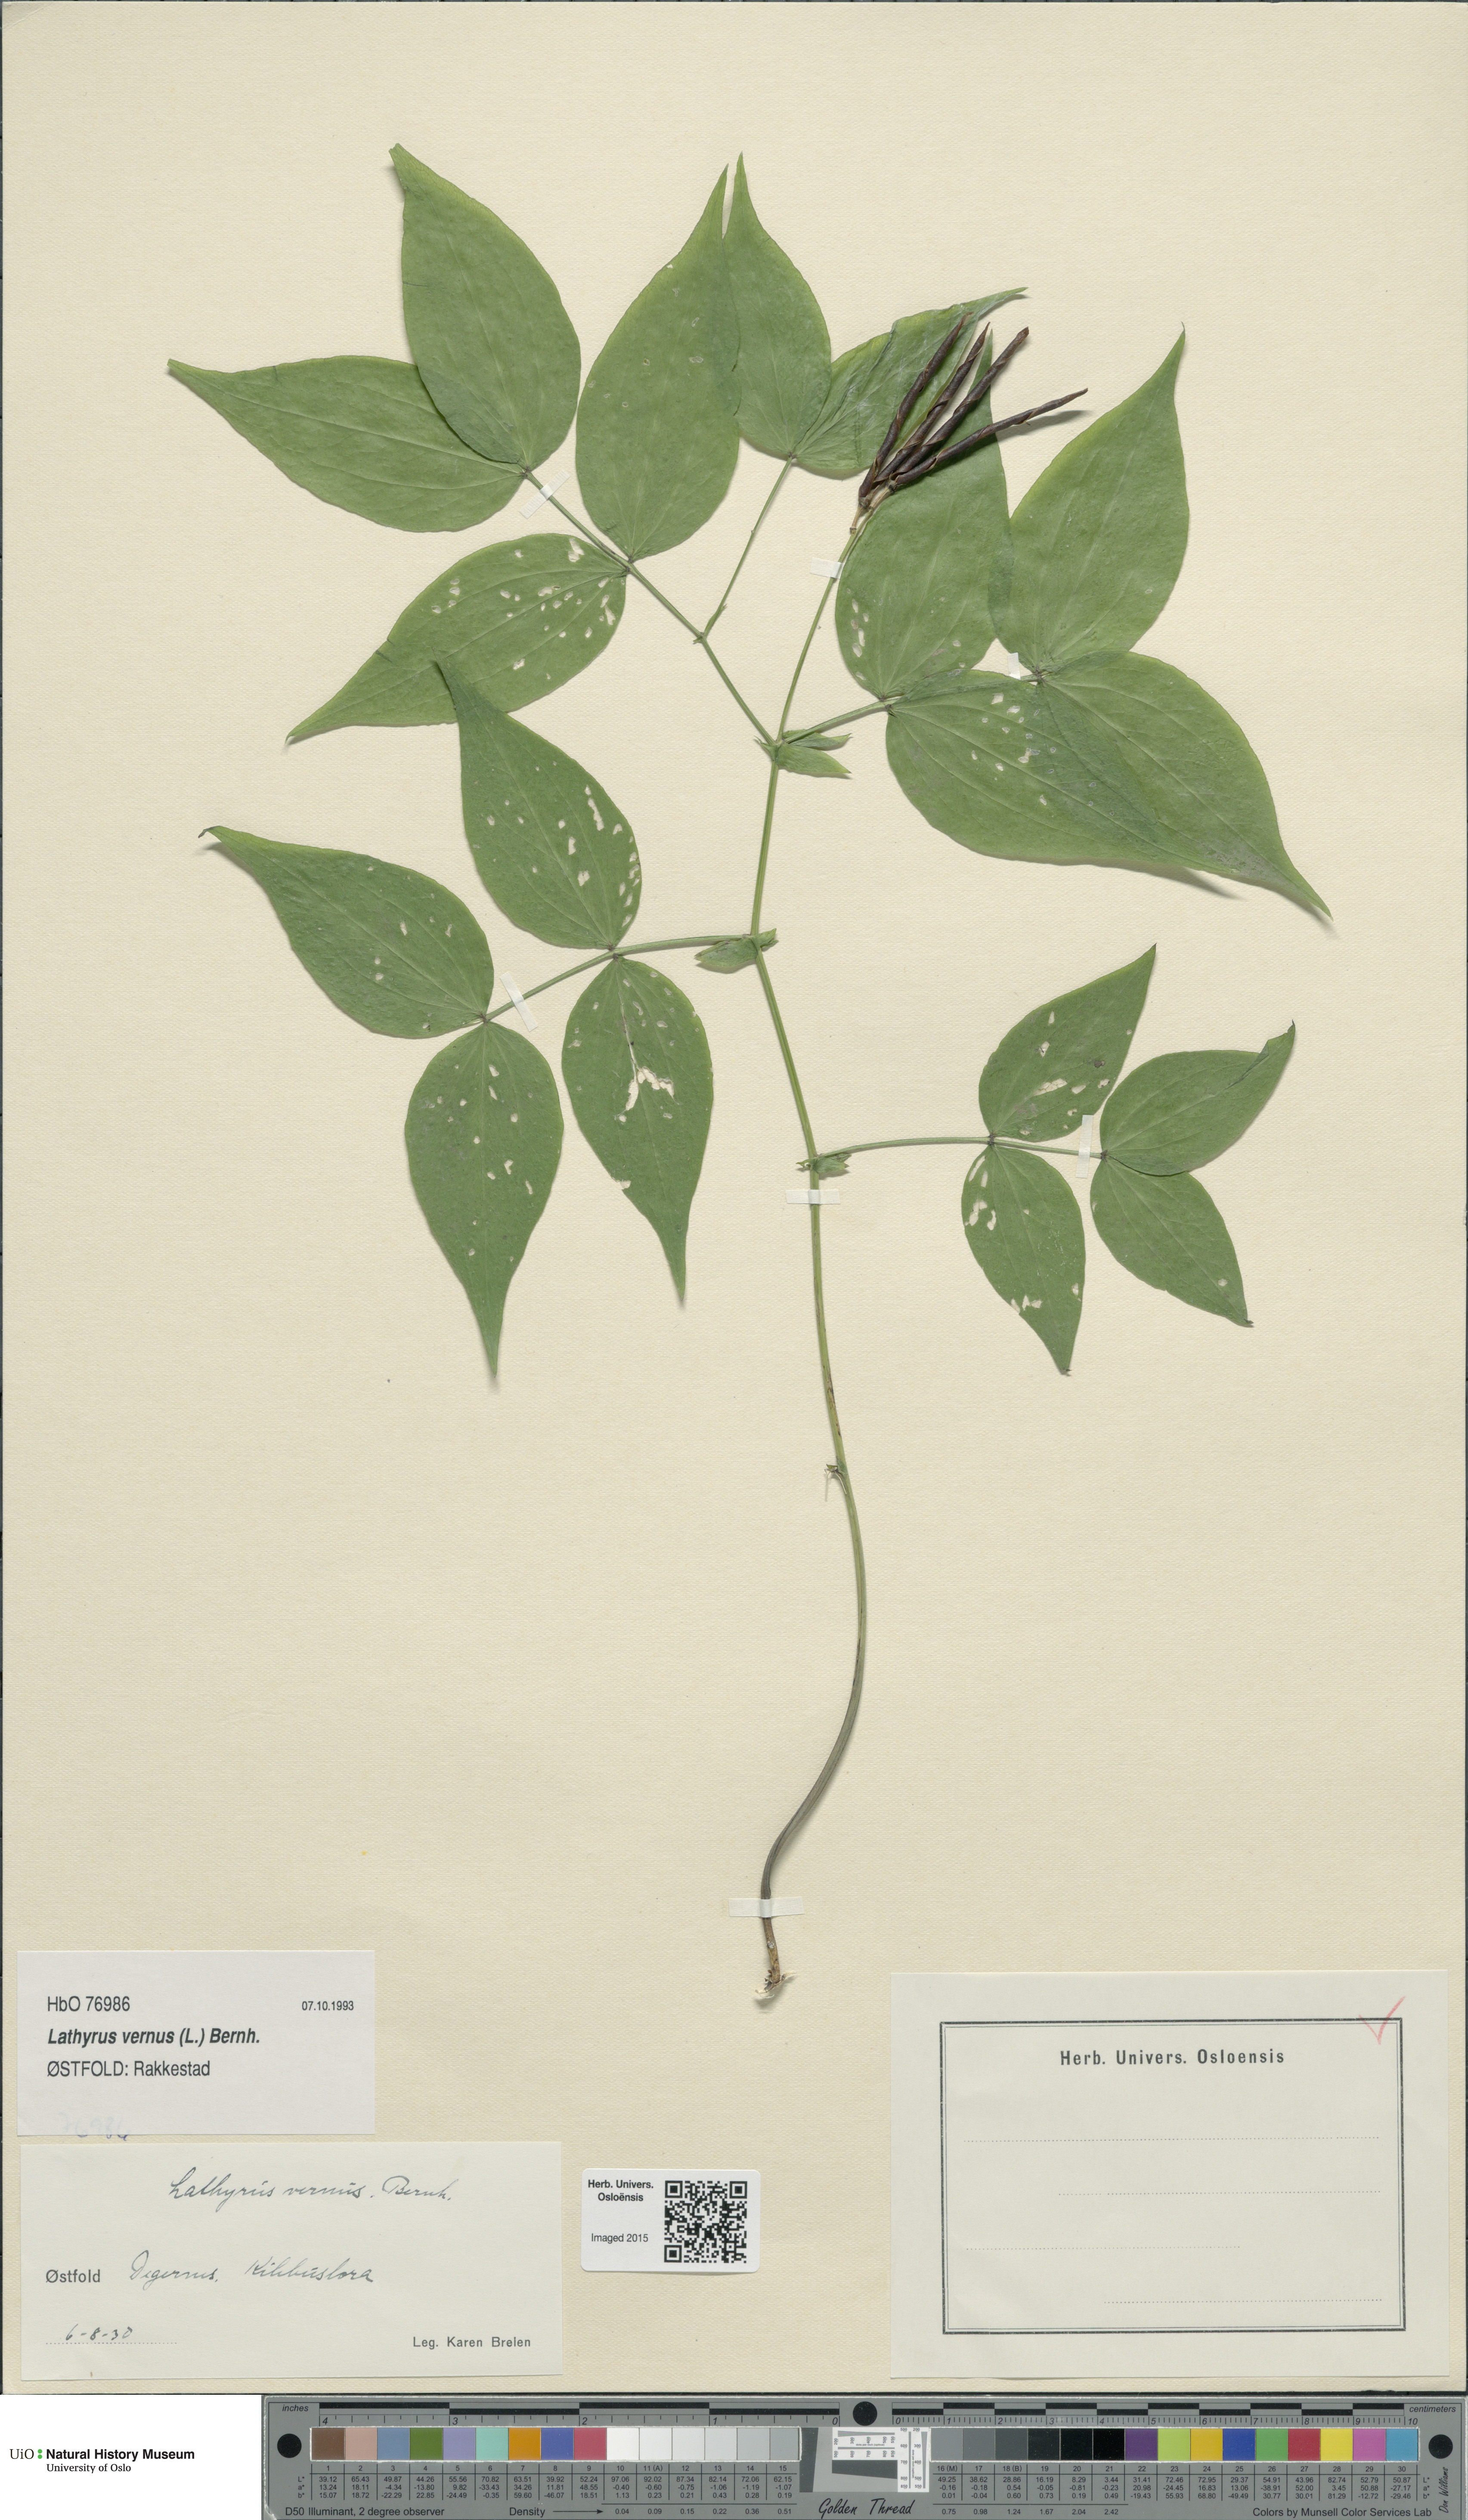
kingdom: Plantae
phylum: Tracheophyta
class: Magnoliopsida
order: Fabales
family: Fabaceae
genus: Lathyrus
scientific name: Lathyrus vernus
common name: Spring pea
